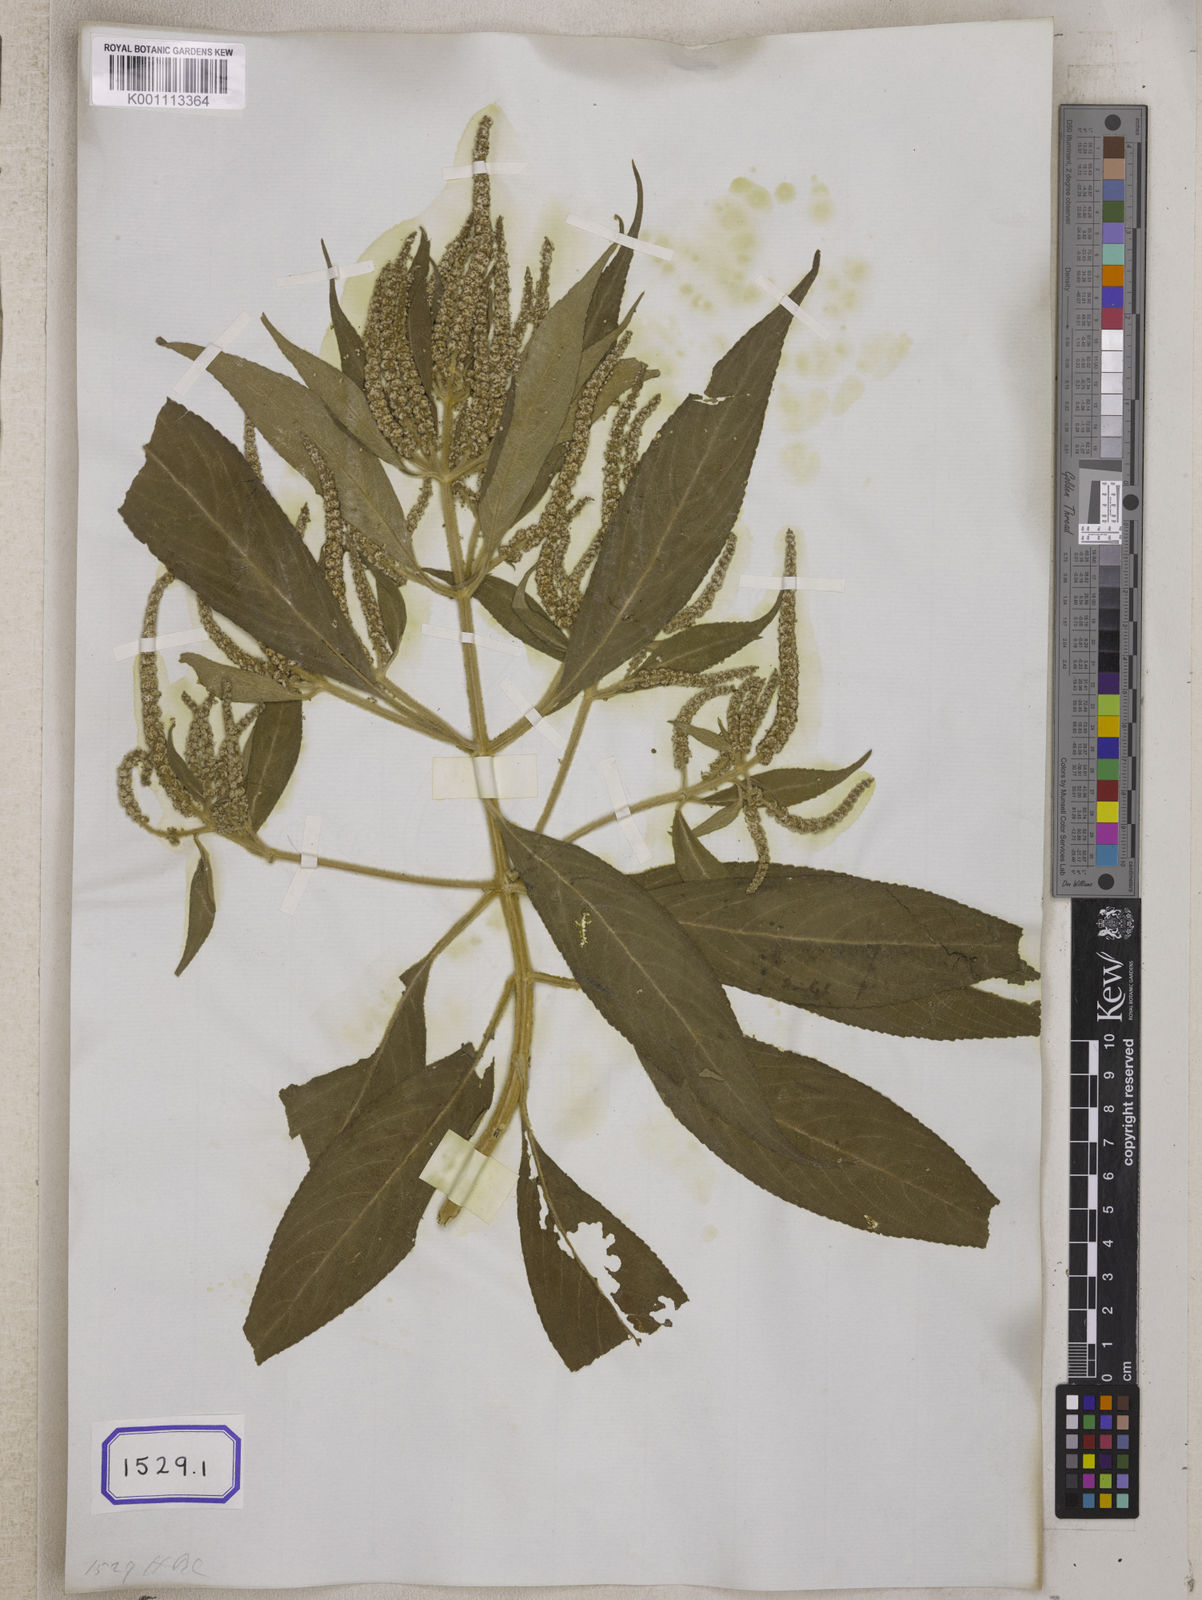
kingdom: Plantae
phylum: Tracheophyta
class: Magnoliopsida
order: Lamiales
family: Lamiaceae
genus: Colebrookea
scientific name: Colebrookea oppositifolia
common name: Indian squirrel tail
